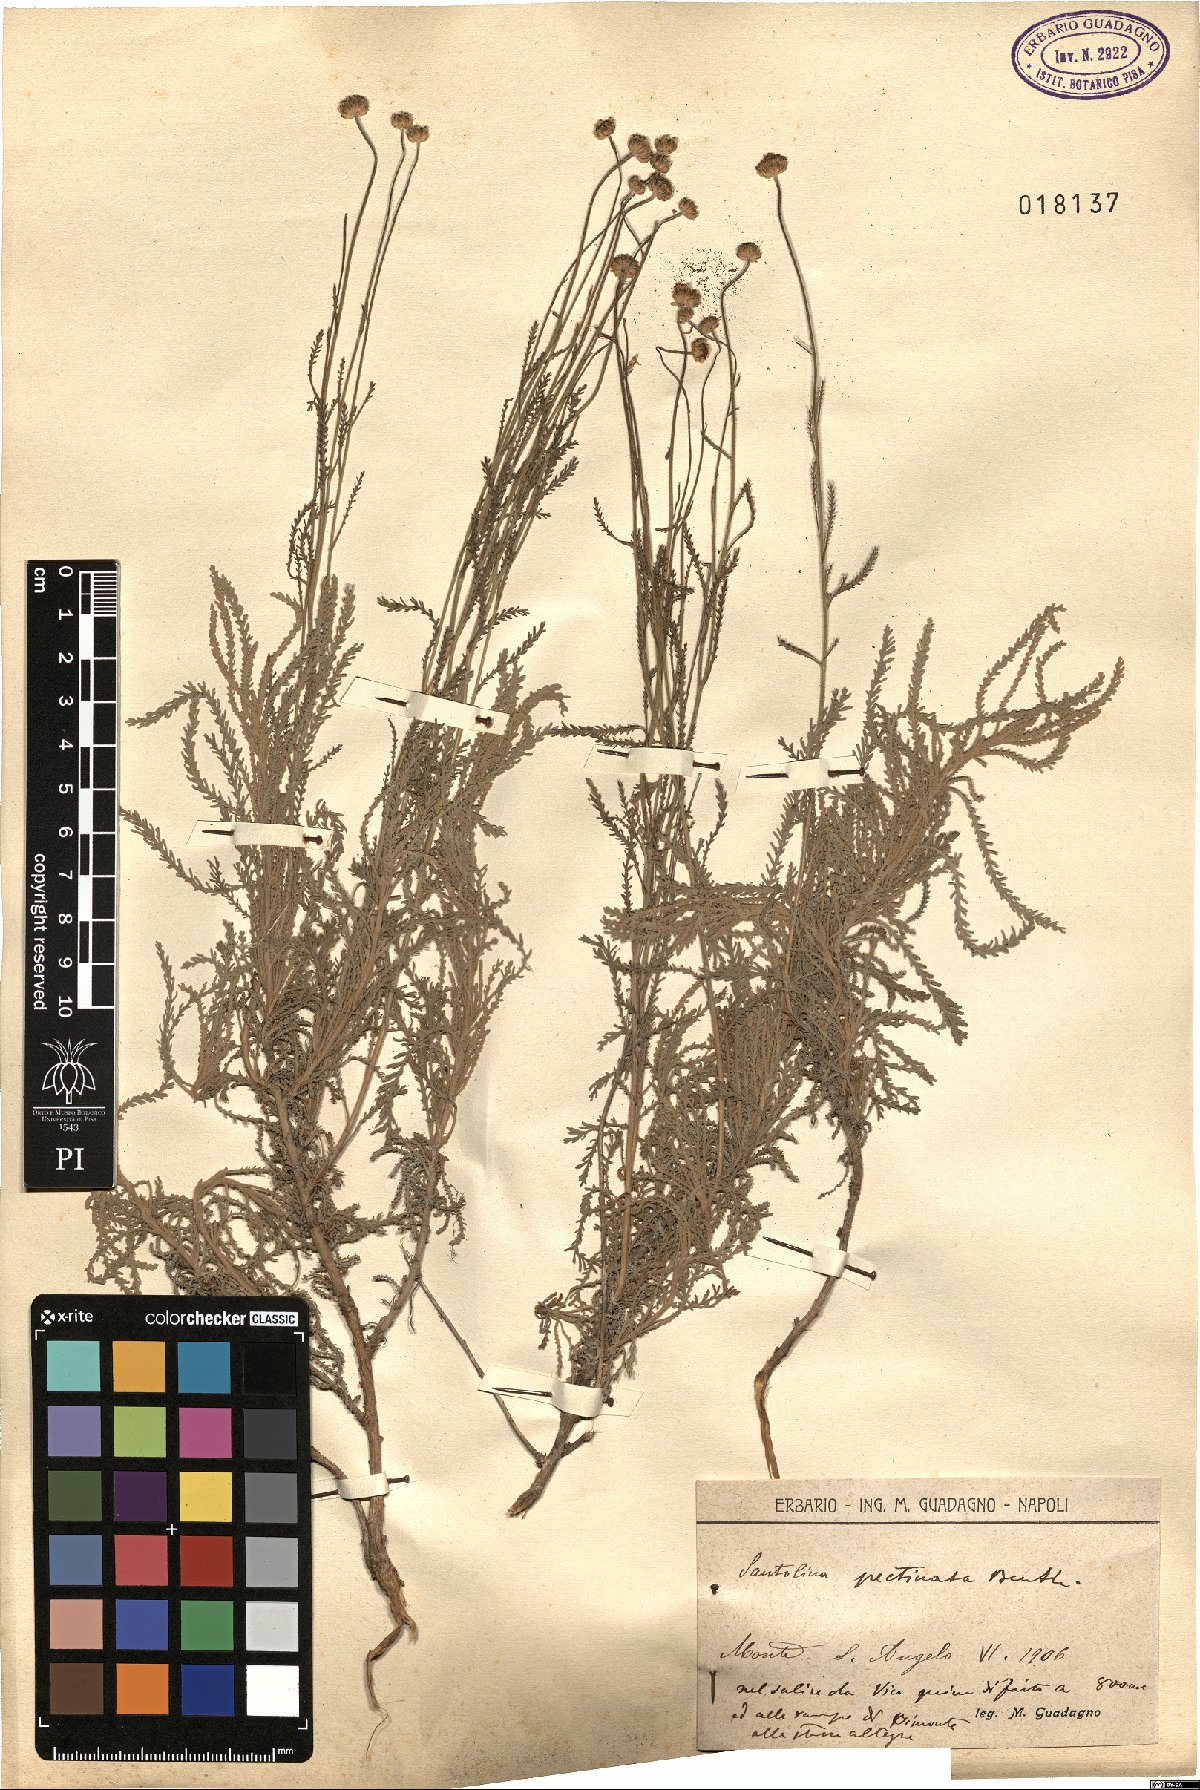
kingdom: Plantae
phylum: Tracheophyta
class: Magnoliopsida
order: Asterales
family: Asteraceae
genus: Santolina
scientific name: Santolina pectinata
